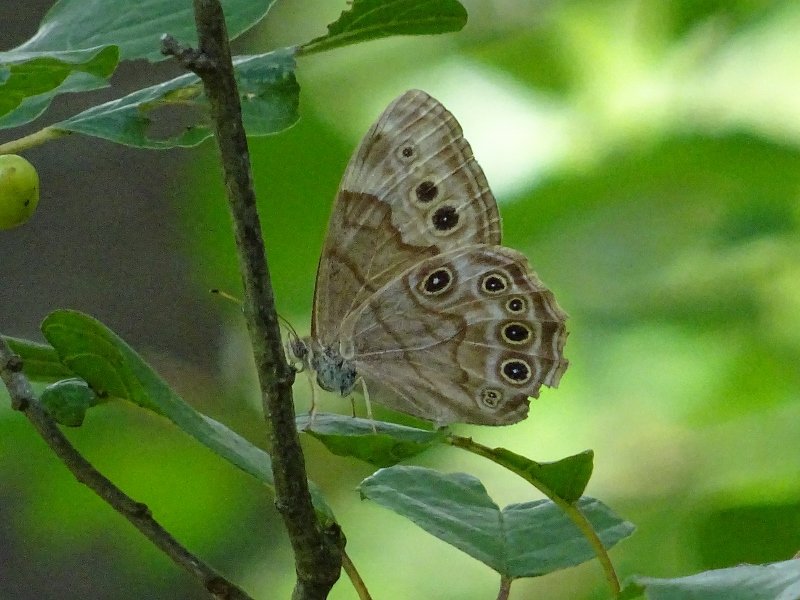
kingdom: Animalia
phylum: Arthropoda
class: Insecta
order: Lepidoptera
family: Nymphalidae
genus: Lethe
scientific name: Lethe anthedon
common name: Northern Pearly-Eye
